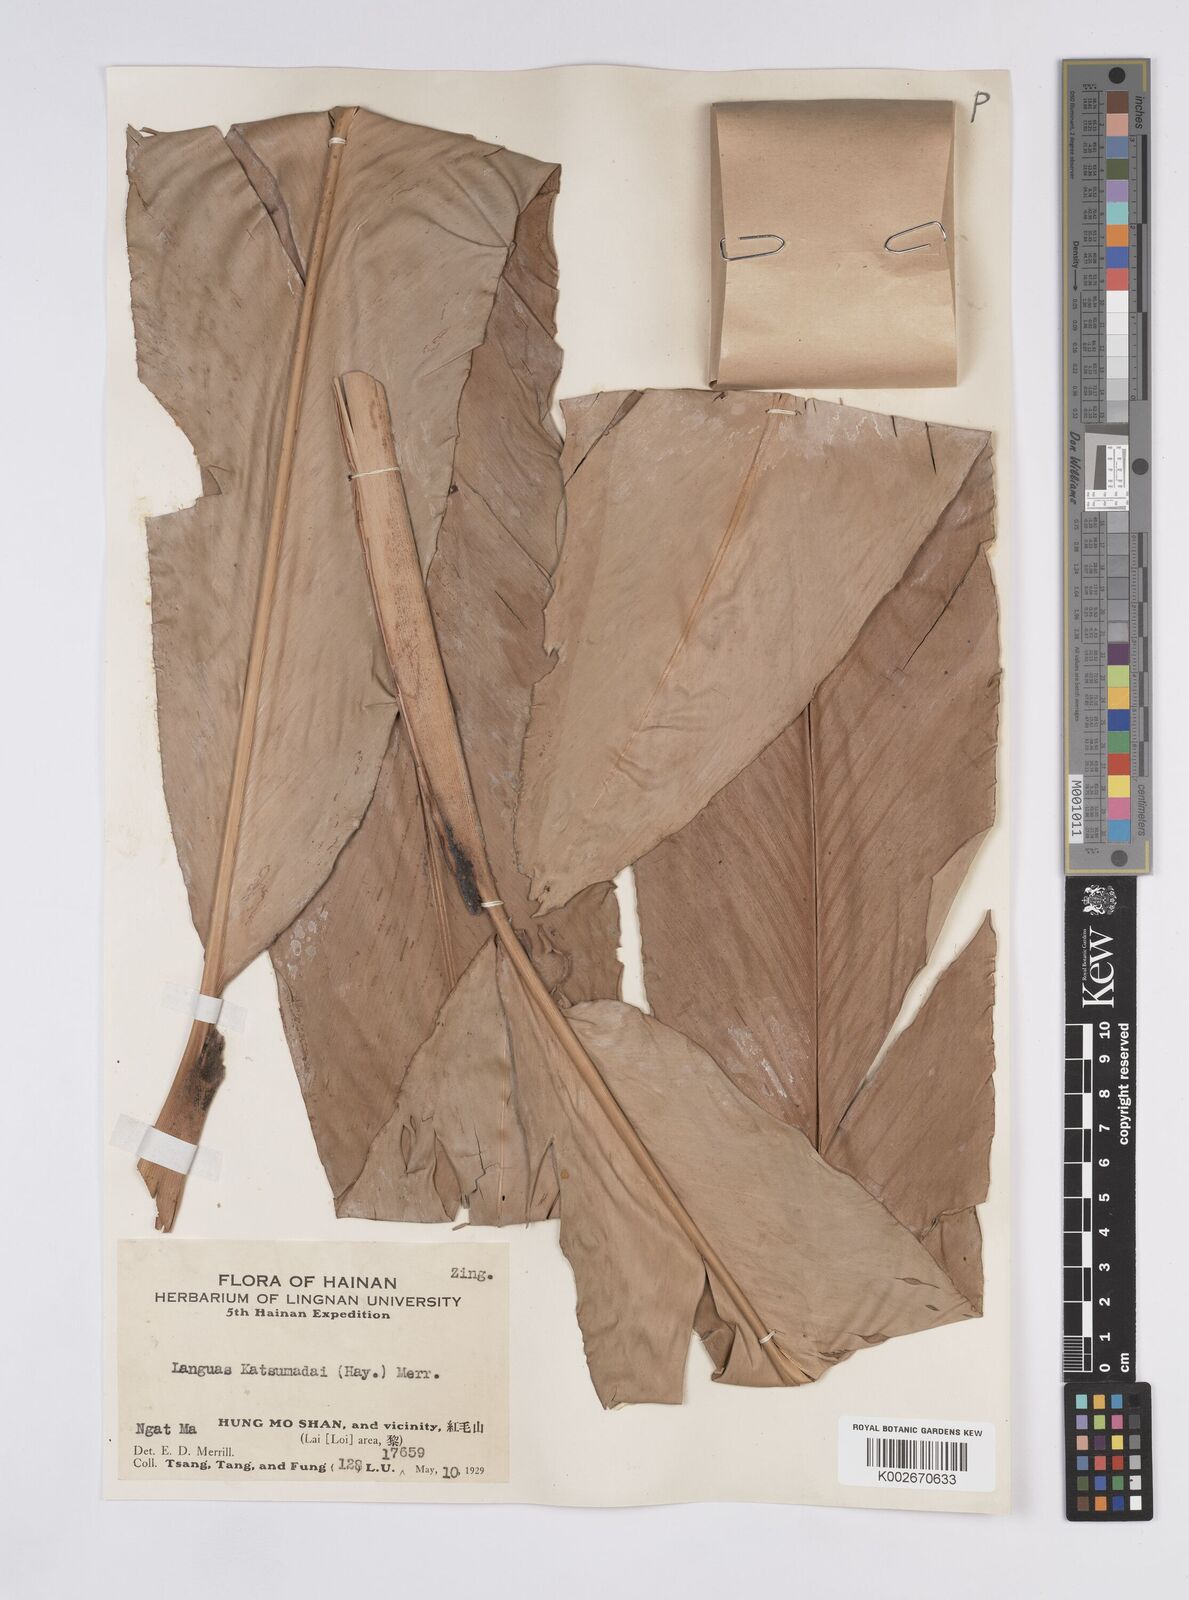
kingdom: Plantae
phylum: Tracheophyta
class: Liliopsida
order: Zingiberales
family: Zingiberaceae
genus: Alpinia
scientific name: Alpinia hainanensis
